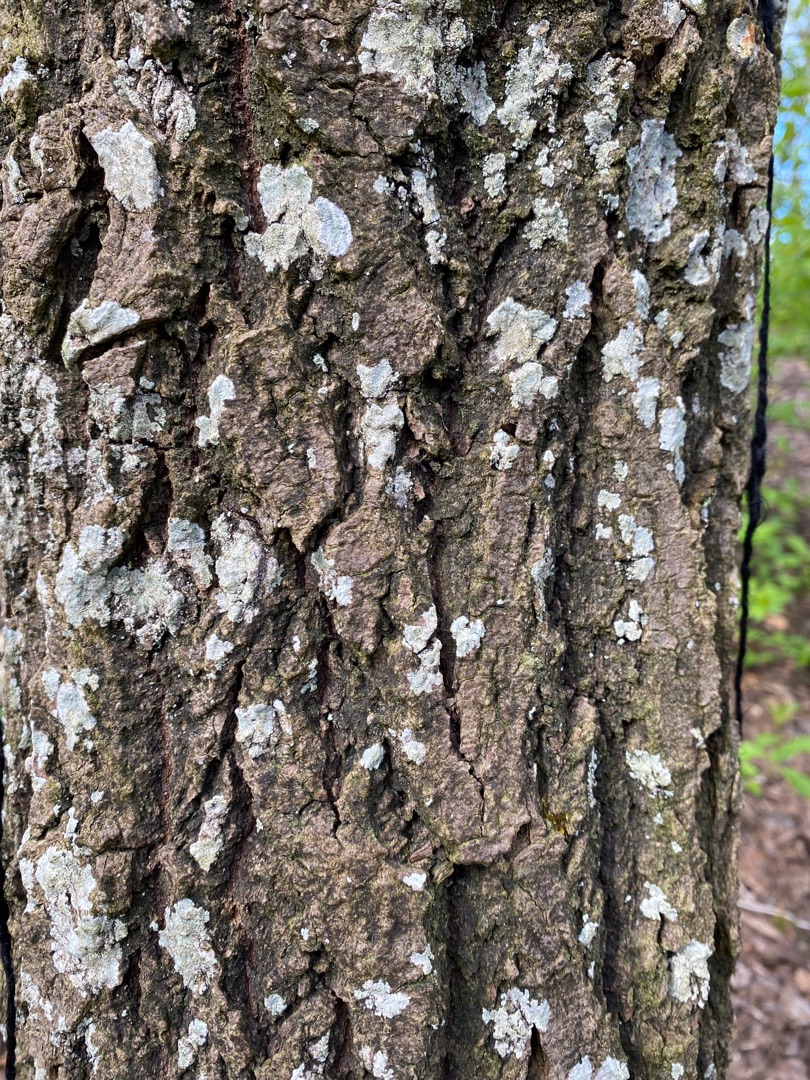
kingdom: Fungi
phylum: Ascomycota
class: Lecanoromycetes
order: Ostropales
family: Phlyctidaceae
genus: Phlyctis
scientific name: Phlyctis argena
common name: Almindelig sølvlav
